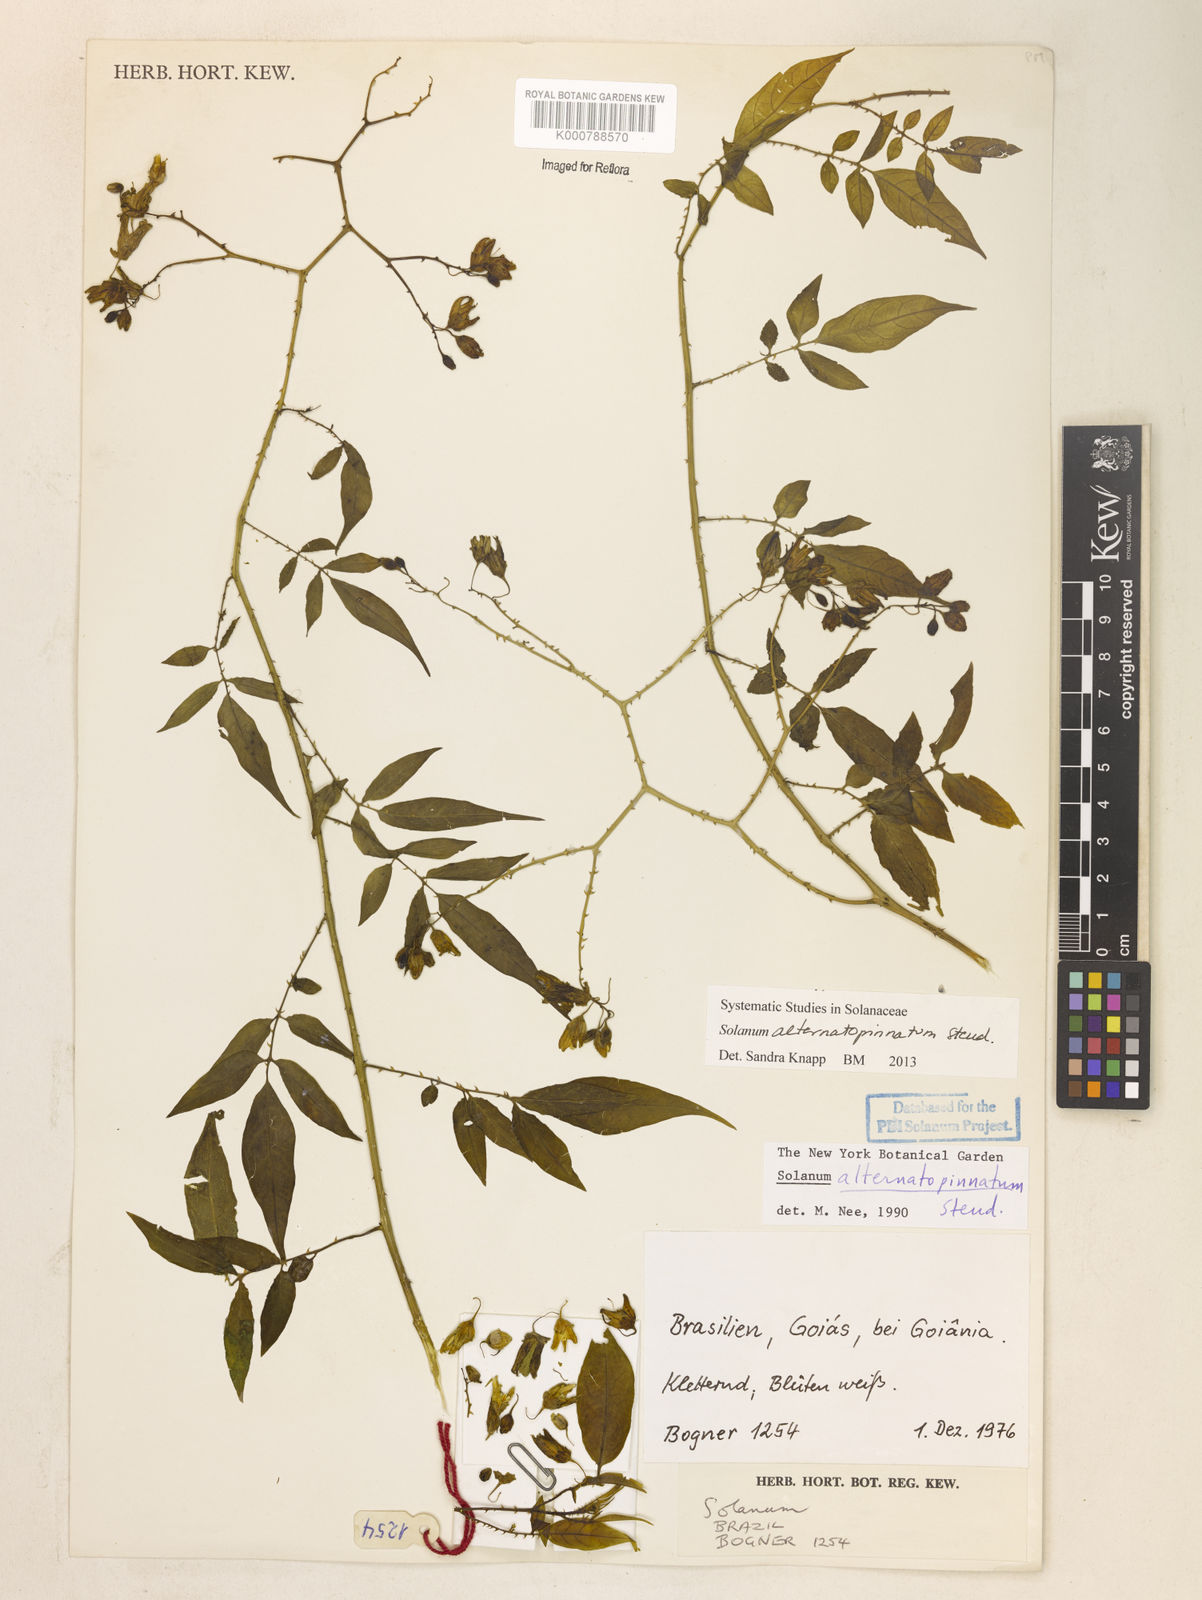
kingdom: Plantae
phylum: Tracheophyta
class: Magnoliopsida
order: Solanales
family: Solanaceae
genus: Solanum
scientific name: Solanum alternatopinnatum
